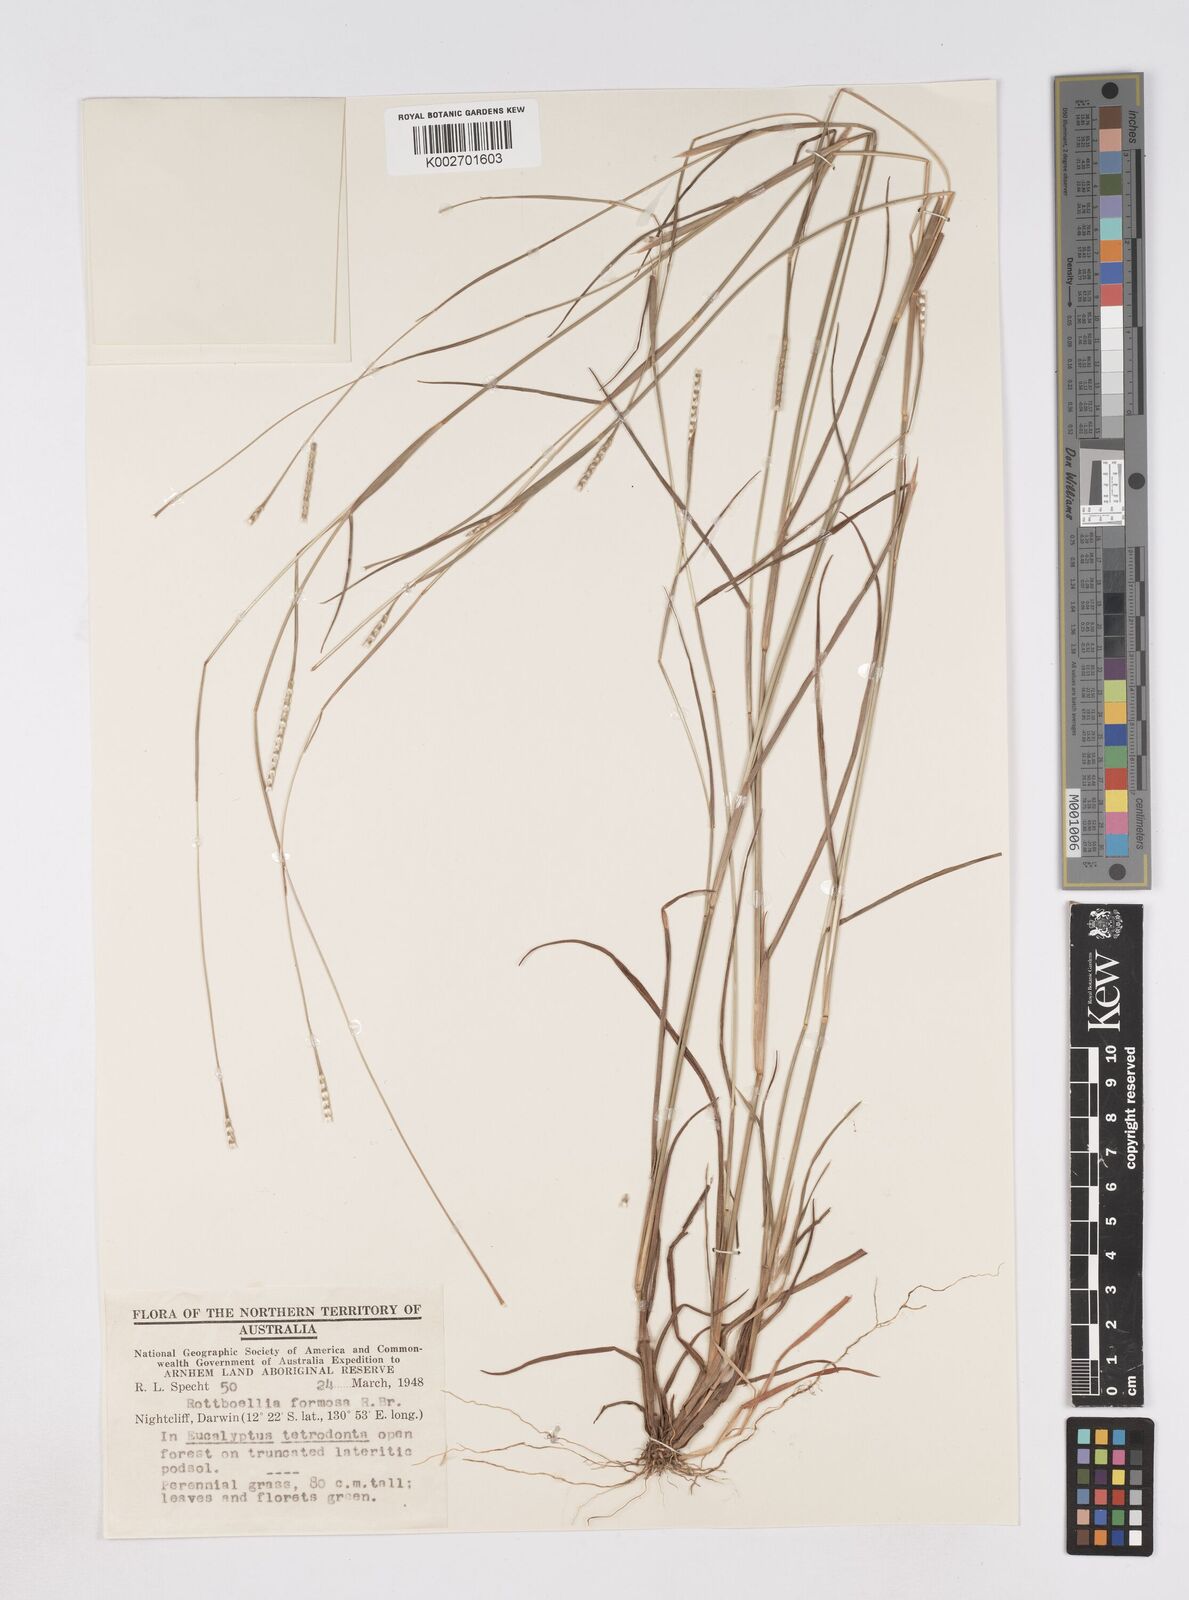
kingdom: Plantae
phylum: Tracheophyta
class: Liliopsida
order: Poales
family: Poaceae
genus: Heteropholis
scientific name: Heteropholis
